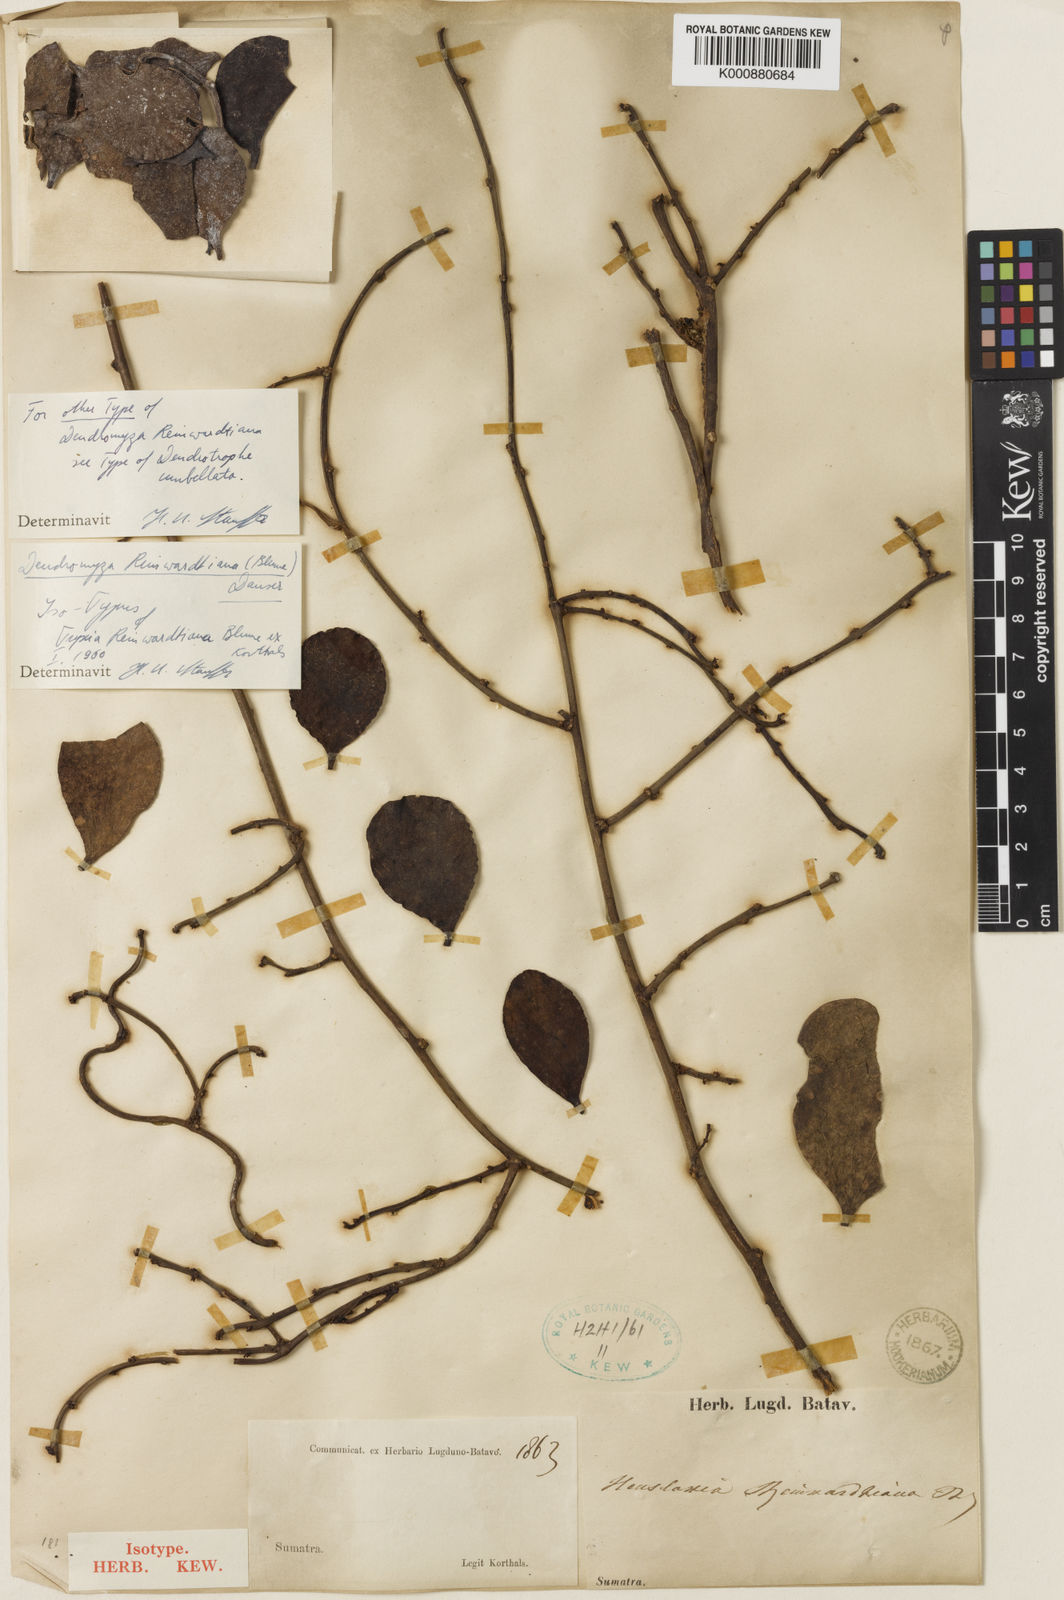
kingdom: Plantae
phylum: Tracheophyta
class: Magnoliopsida
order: Santalales
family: Amphorogynaceae
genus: Dendromyza
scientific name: Dendromyza reinwardtiana
